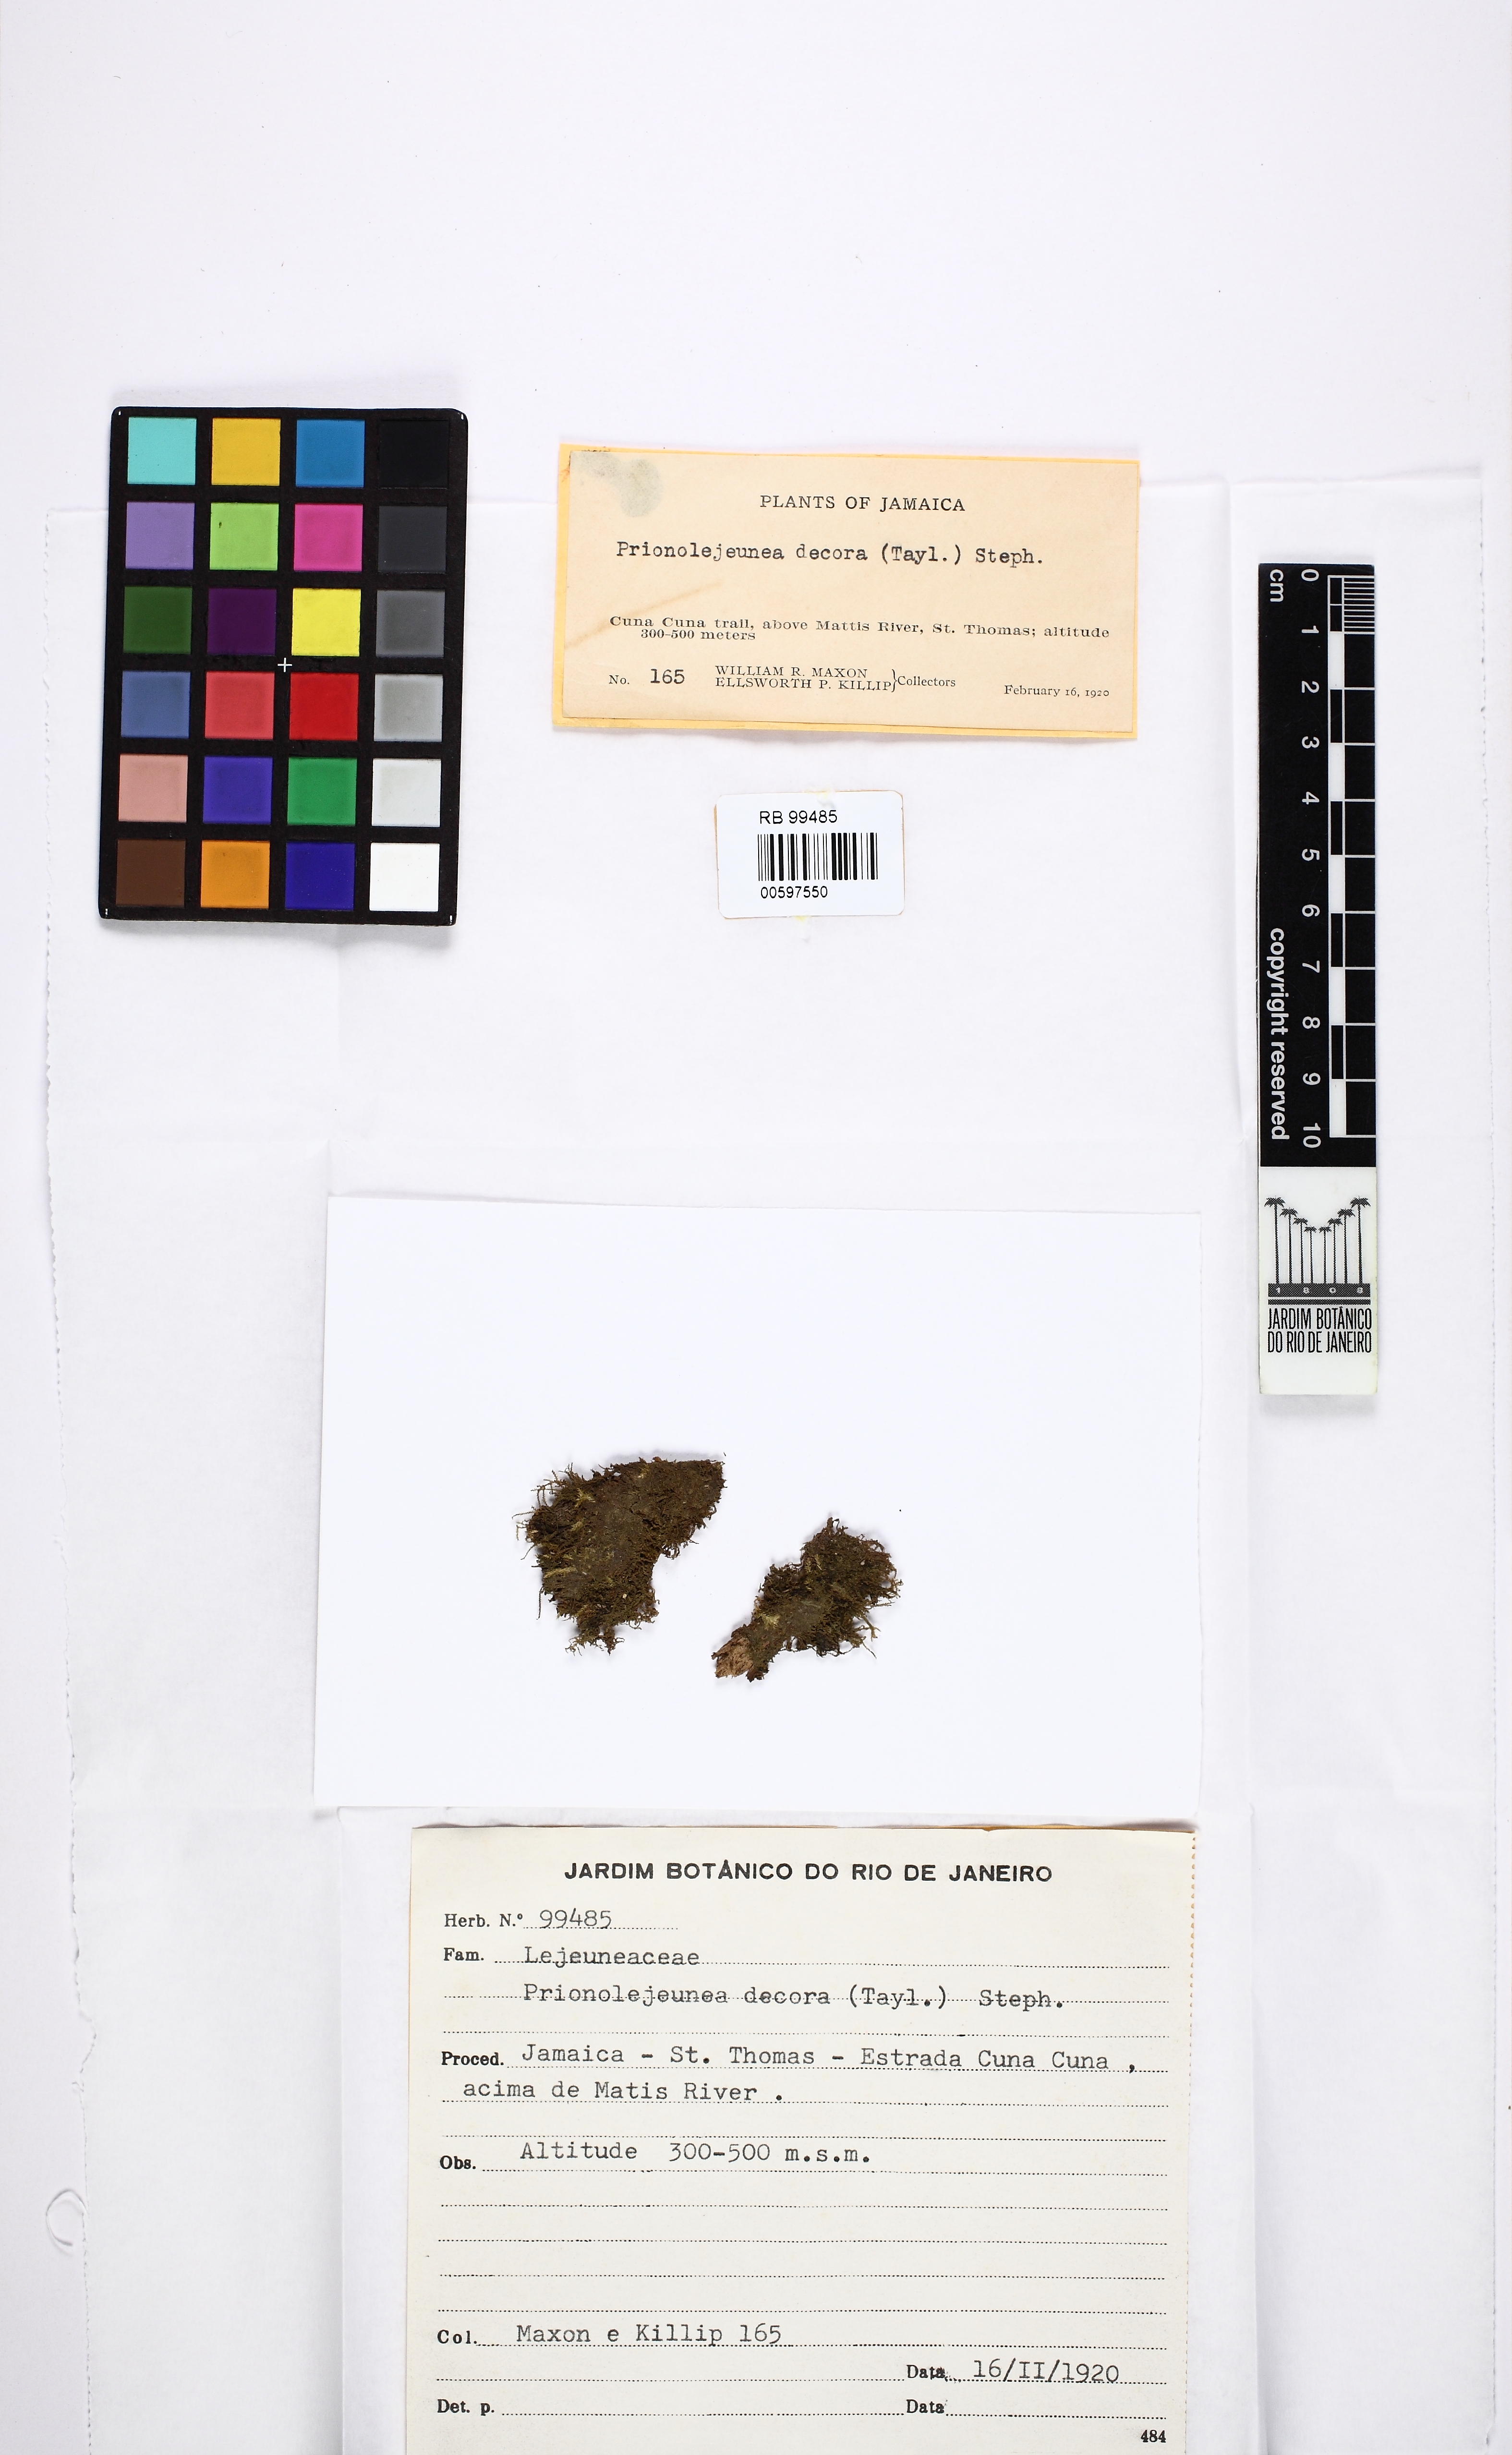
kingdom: Plantae
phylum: Marchantiophyta
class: Jungermanniopsida
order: Porellales
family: Lejeuneaceae
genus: Prionolejeunea
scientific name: Prionolejeunea decora
